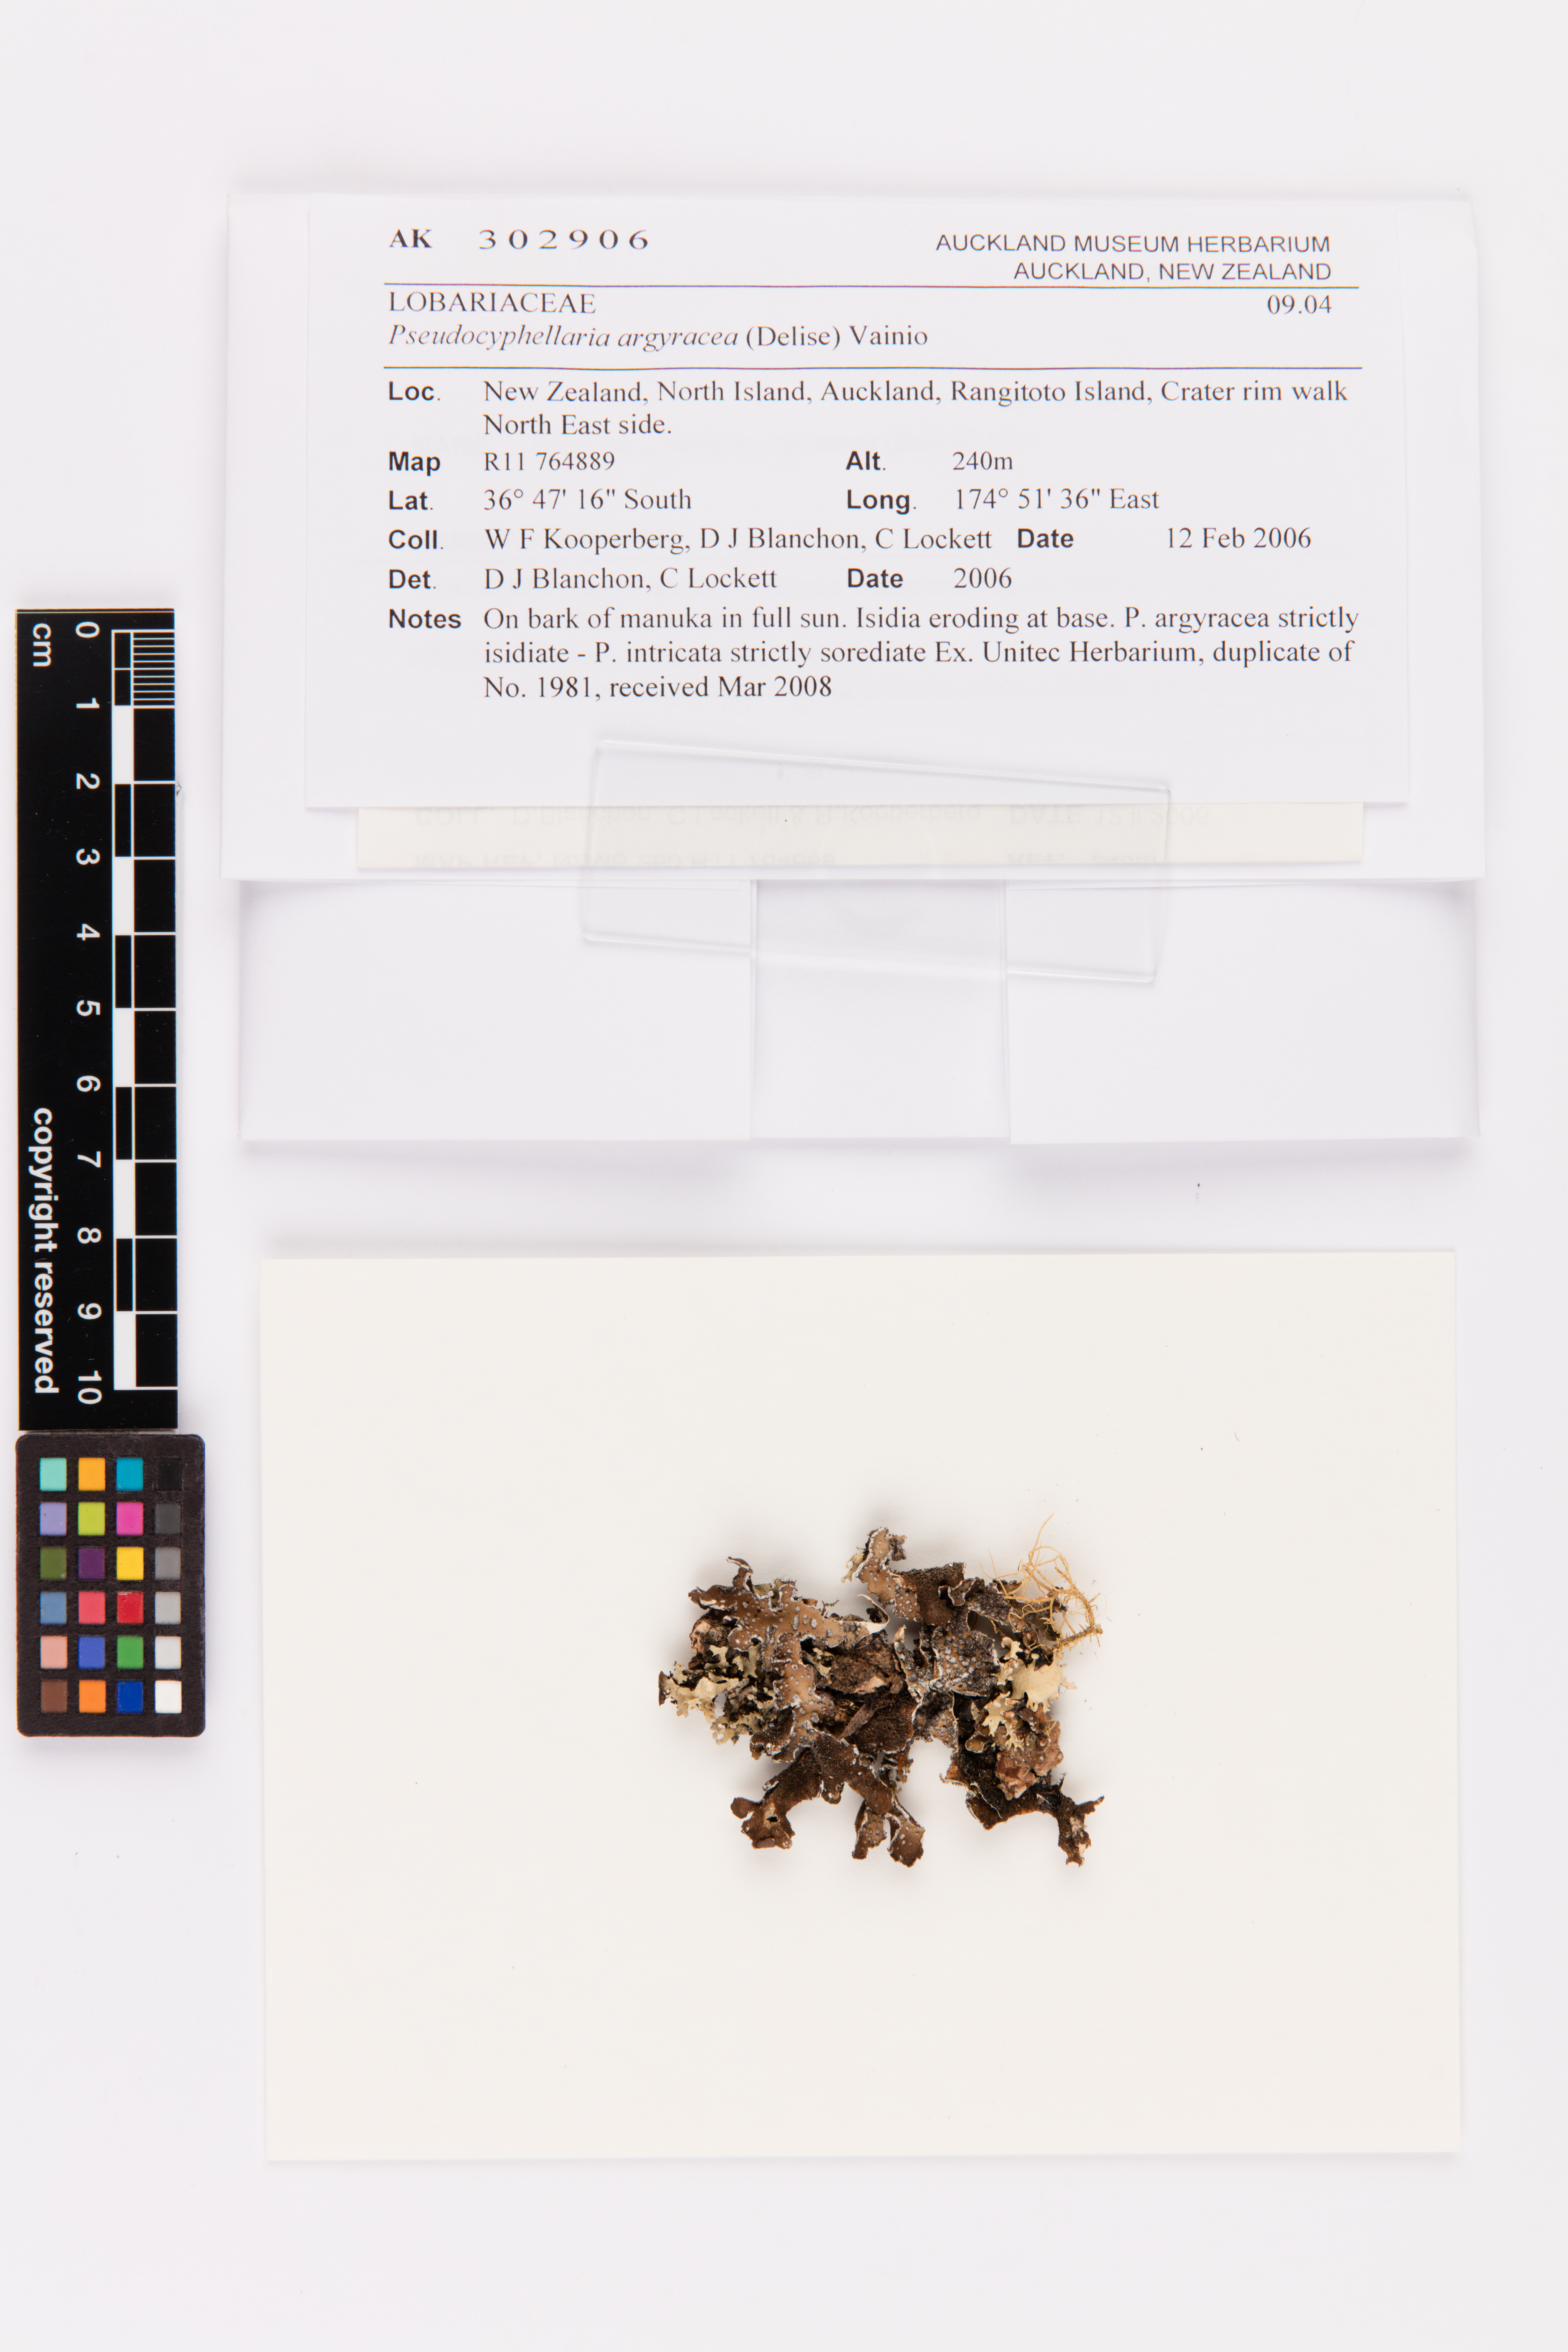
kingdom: Fungi
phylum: Ascomycota
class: Lecanoromycetes
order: Peltigerales
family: Lobariaceae
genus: Pseudocyphellaria
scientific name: Pseudocyphellaria argyracea
